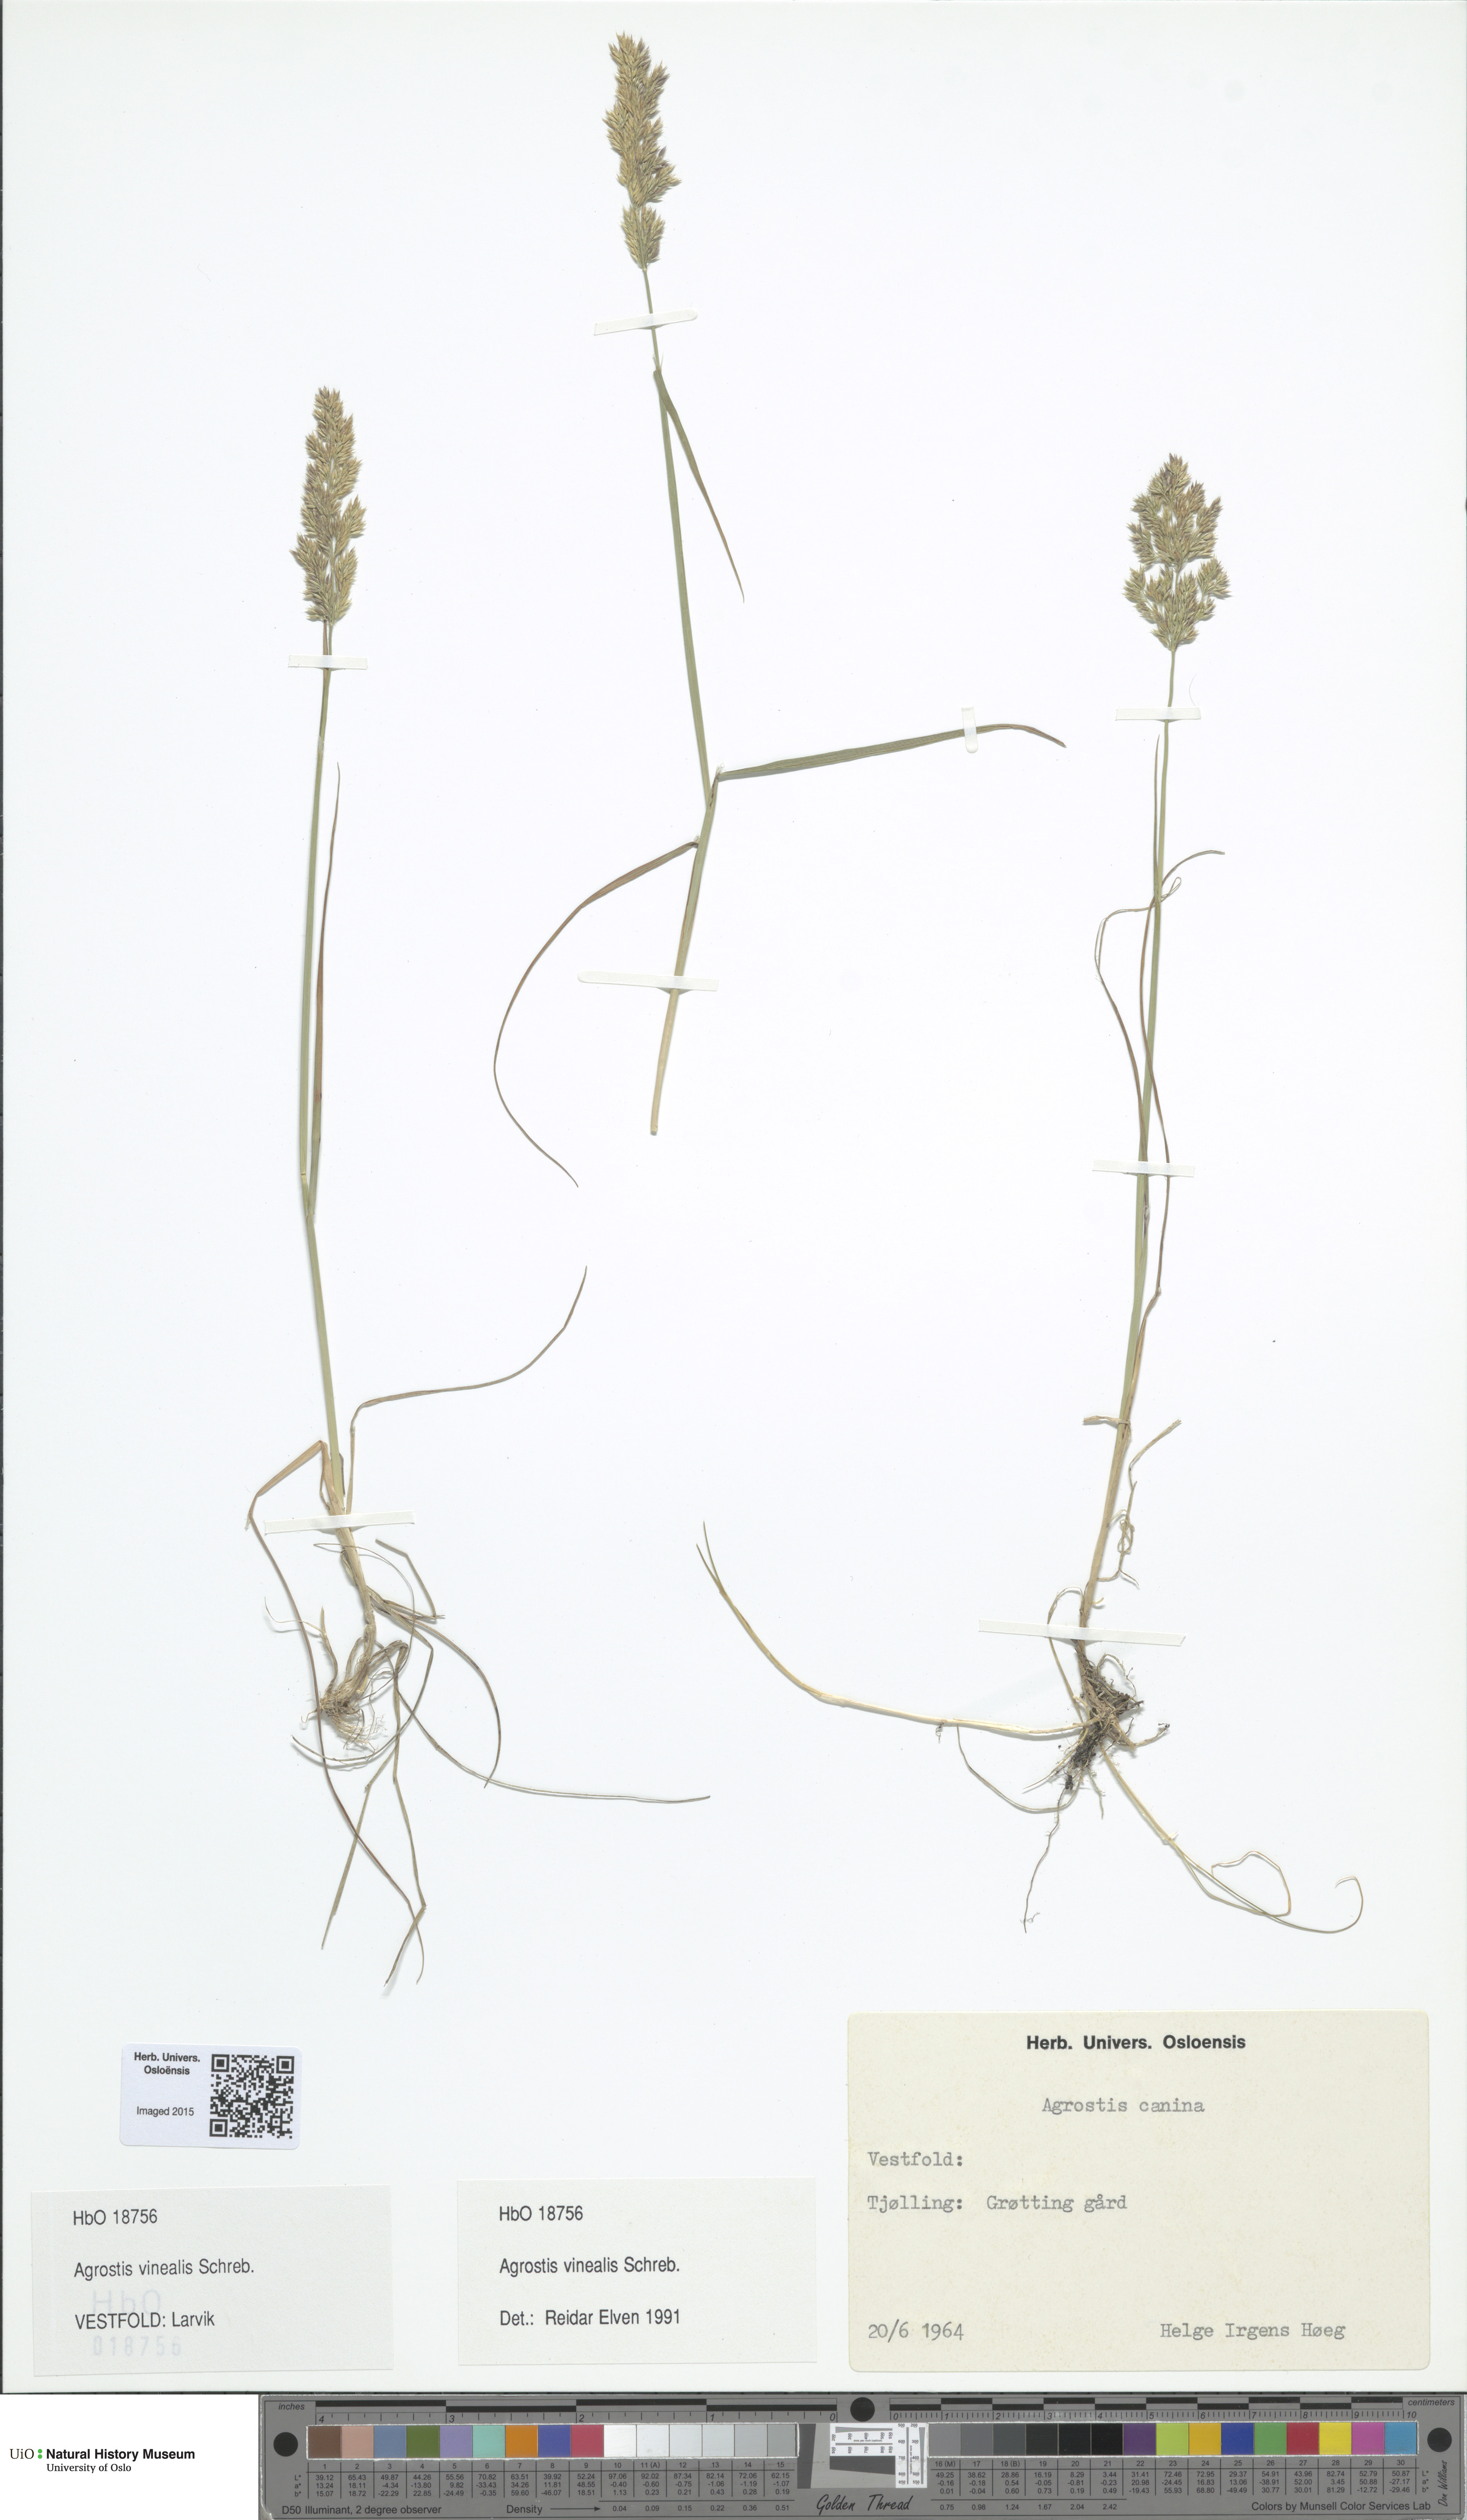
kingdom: Plantae
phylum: Tracheophyta
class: Liliopsida
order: Poales
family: Poaceae
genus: Agrostis
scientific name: Agrostis vinealis
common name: Brown bent
